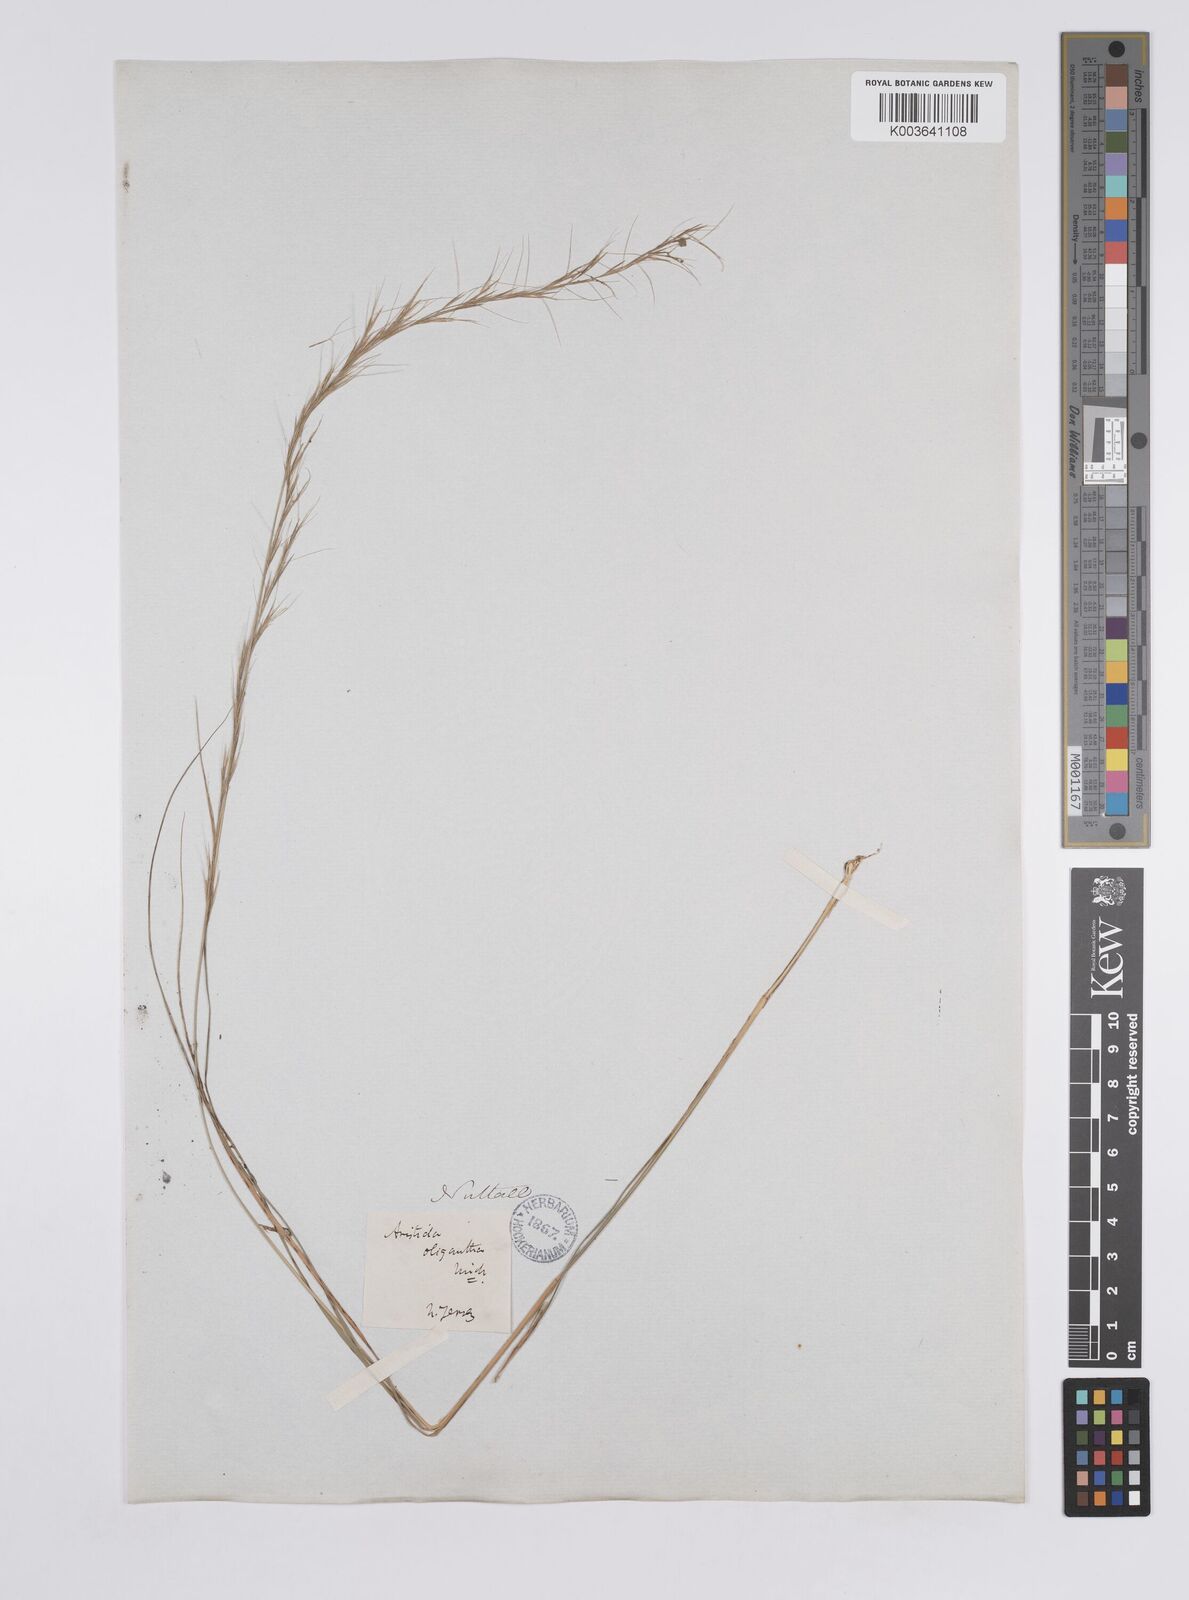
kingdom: Plantae
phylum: Tracheophyta
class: Liliopsida
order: Poales
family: Poaceae
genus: Aristida
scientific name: Aristida purpurascens
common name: Arrow-feather
